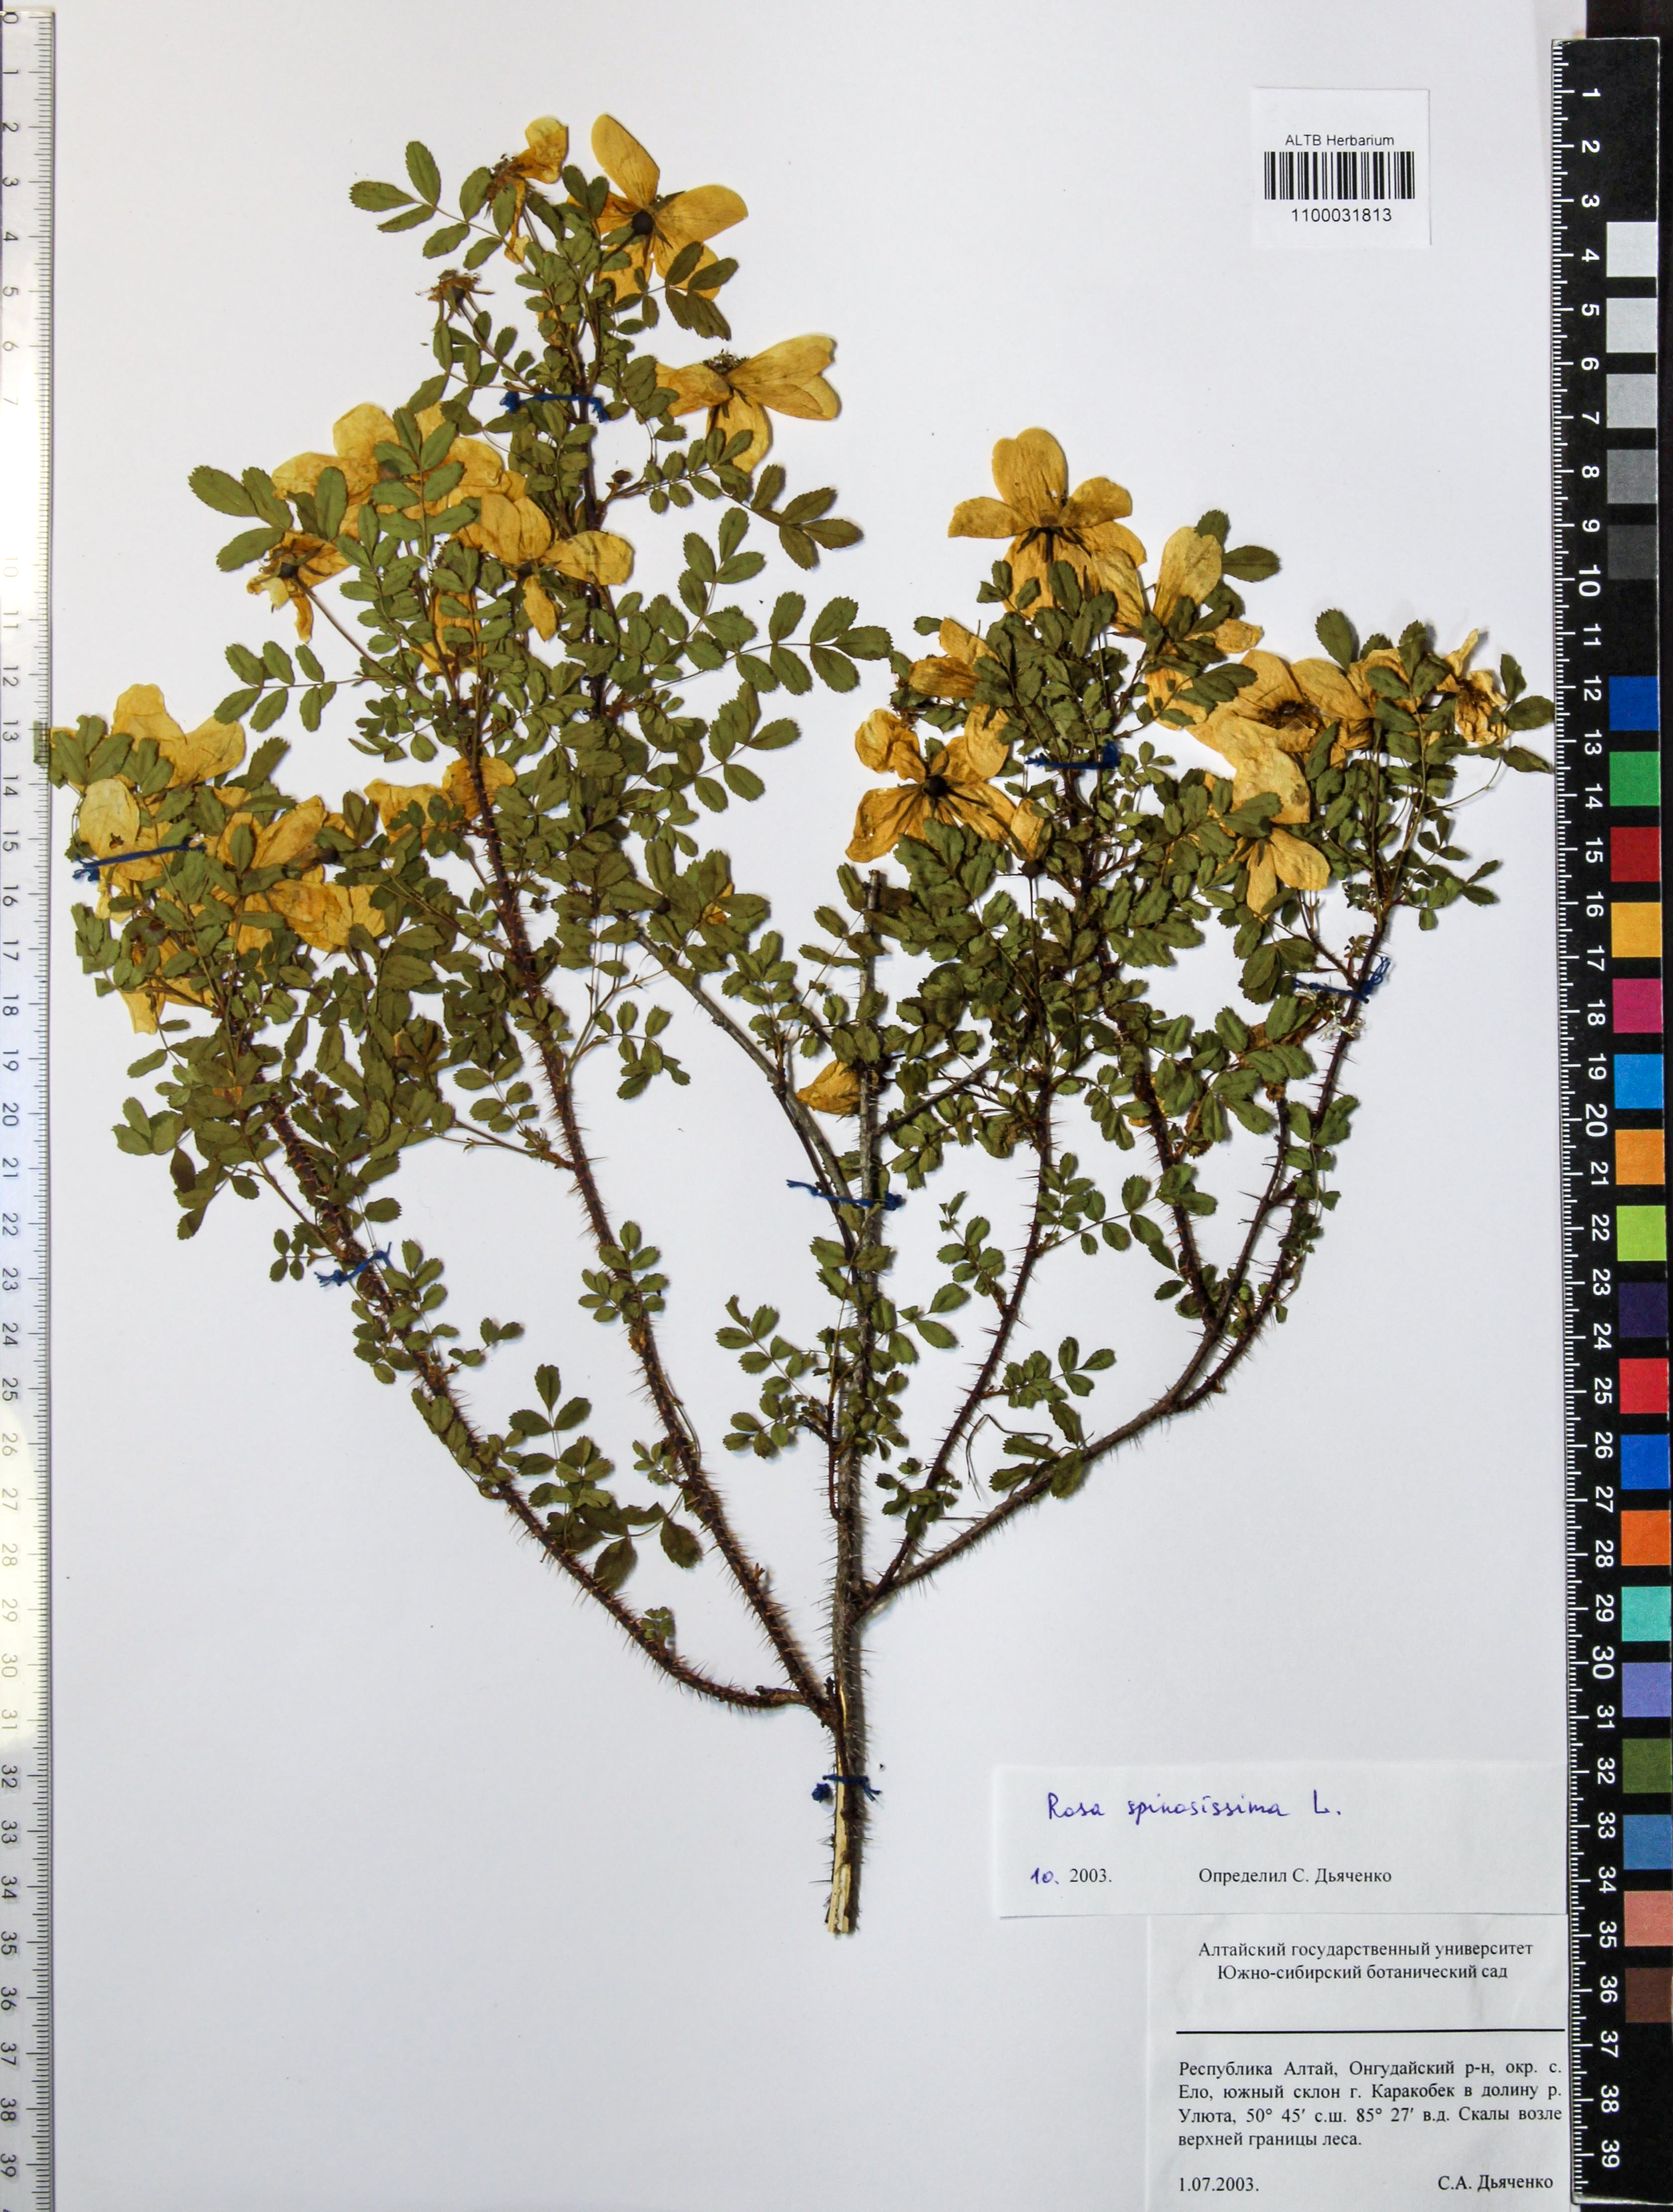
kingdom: Plantae
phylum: Tracheophyta
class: Magnoliopsida
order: Rosales
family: Rosaceae
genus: Rosa
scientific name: Rosa spinosissima
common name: Burnet rose
